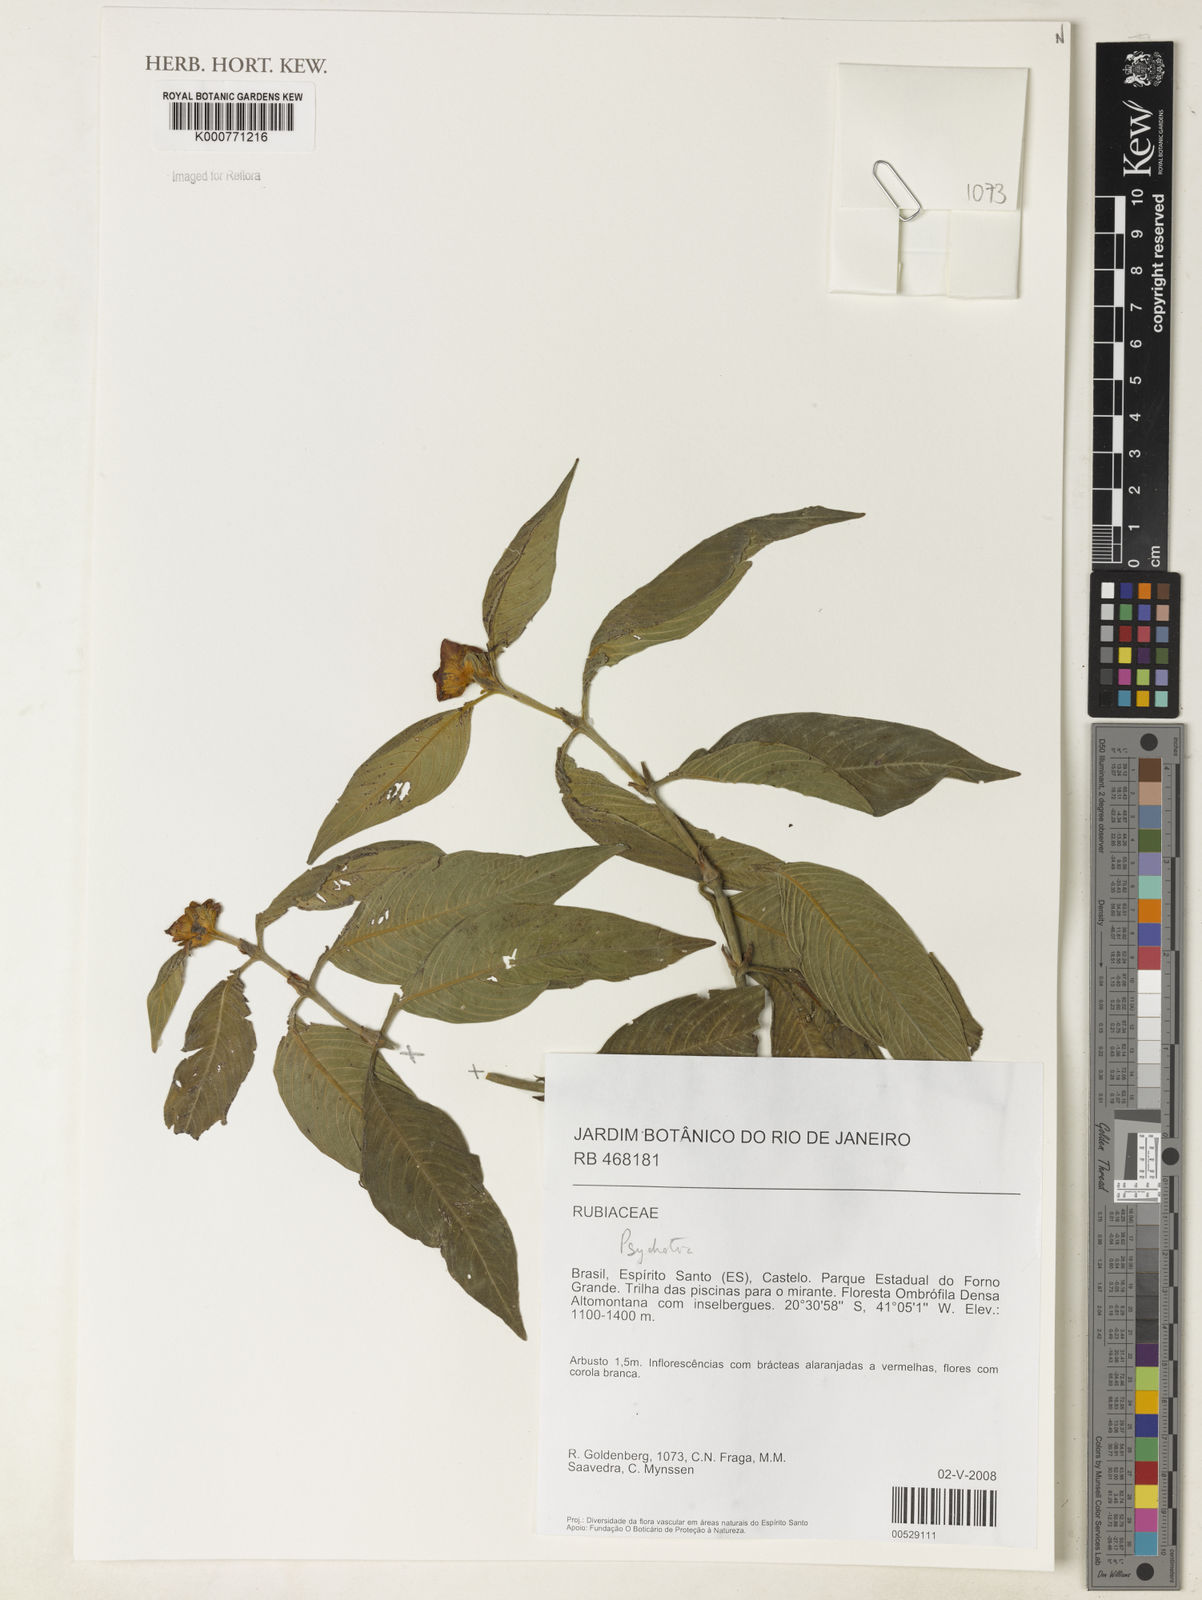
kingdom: Plantae
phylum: Tracheophyta
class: Magnoliopsida
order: Gentianales
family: Rubiaceae
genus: Psychotria
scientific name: Psychotria
